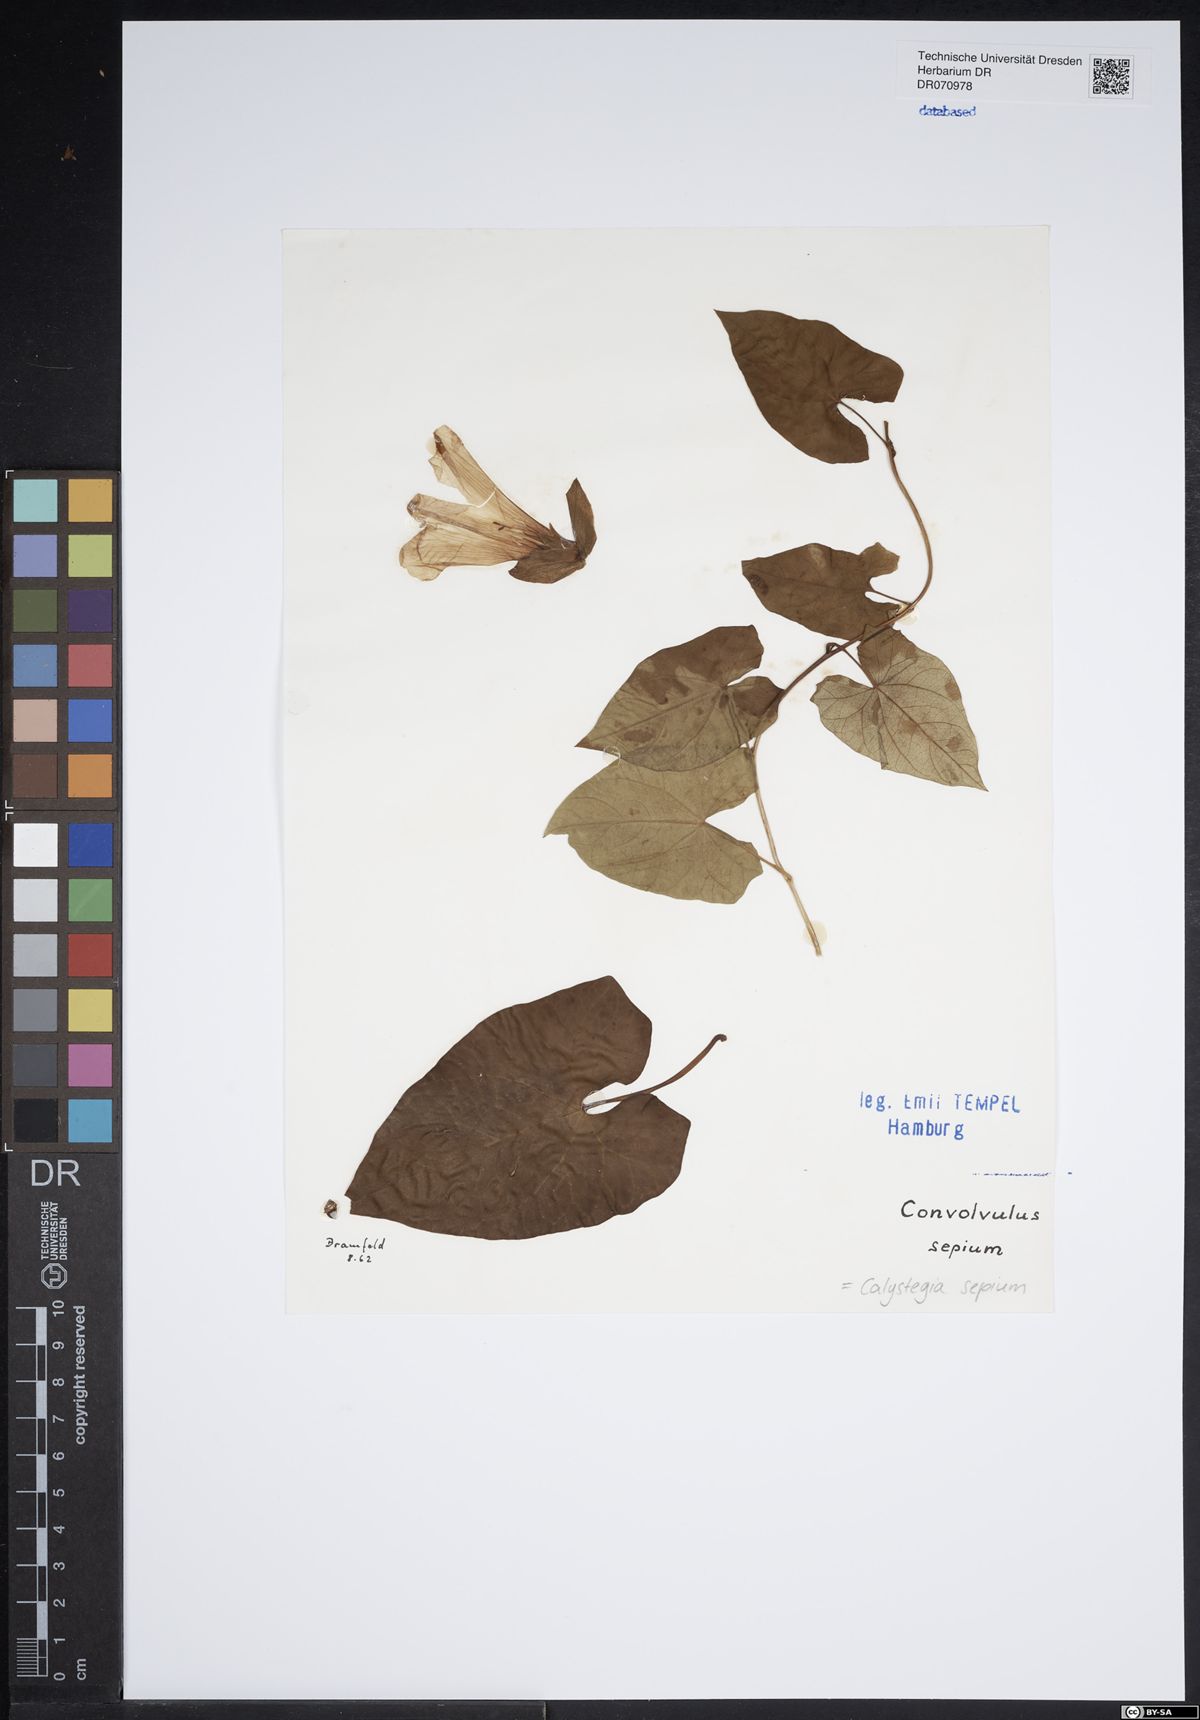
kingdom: Plantae
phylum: Tracheophyta
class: Magnoliopsida
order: Solanales
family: Convolvulaceae
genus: Calystegia
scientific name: Calystegia sepium
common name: Hedge bindweed
